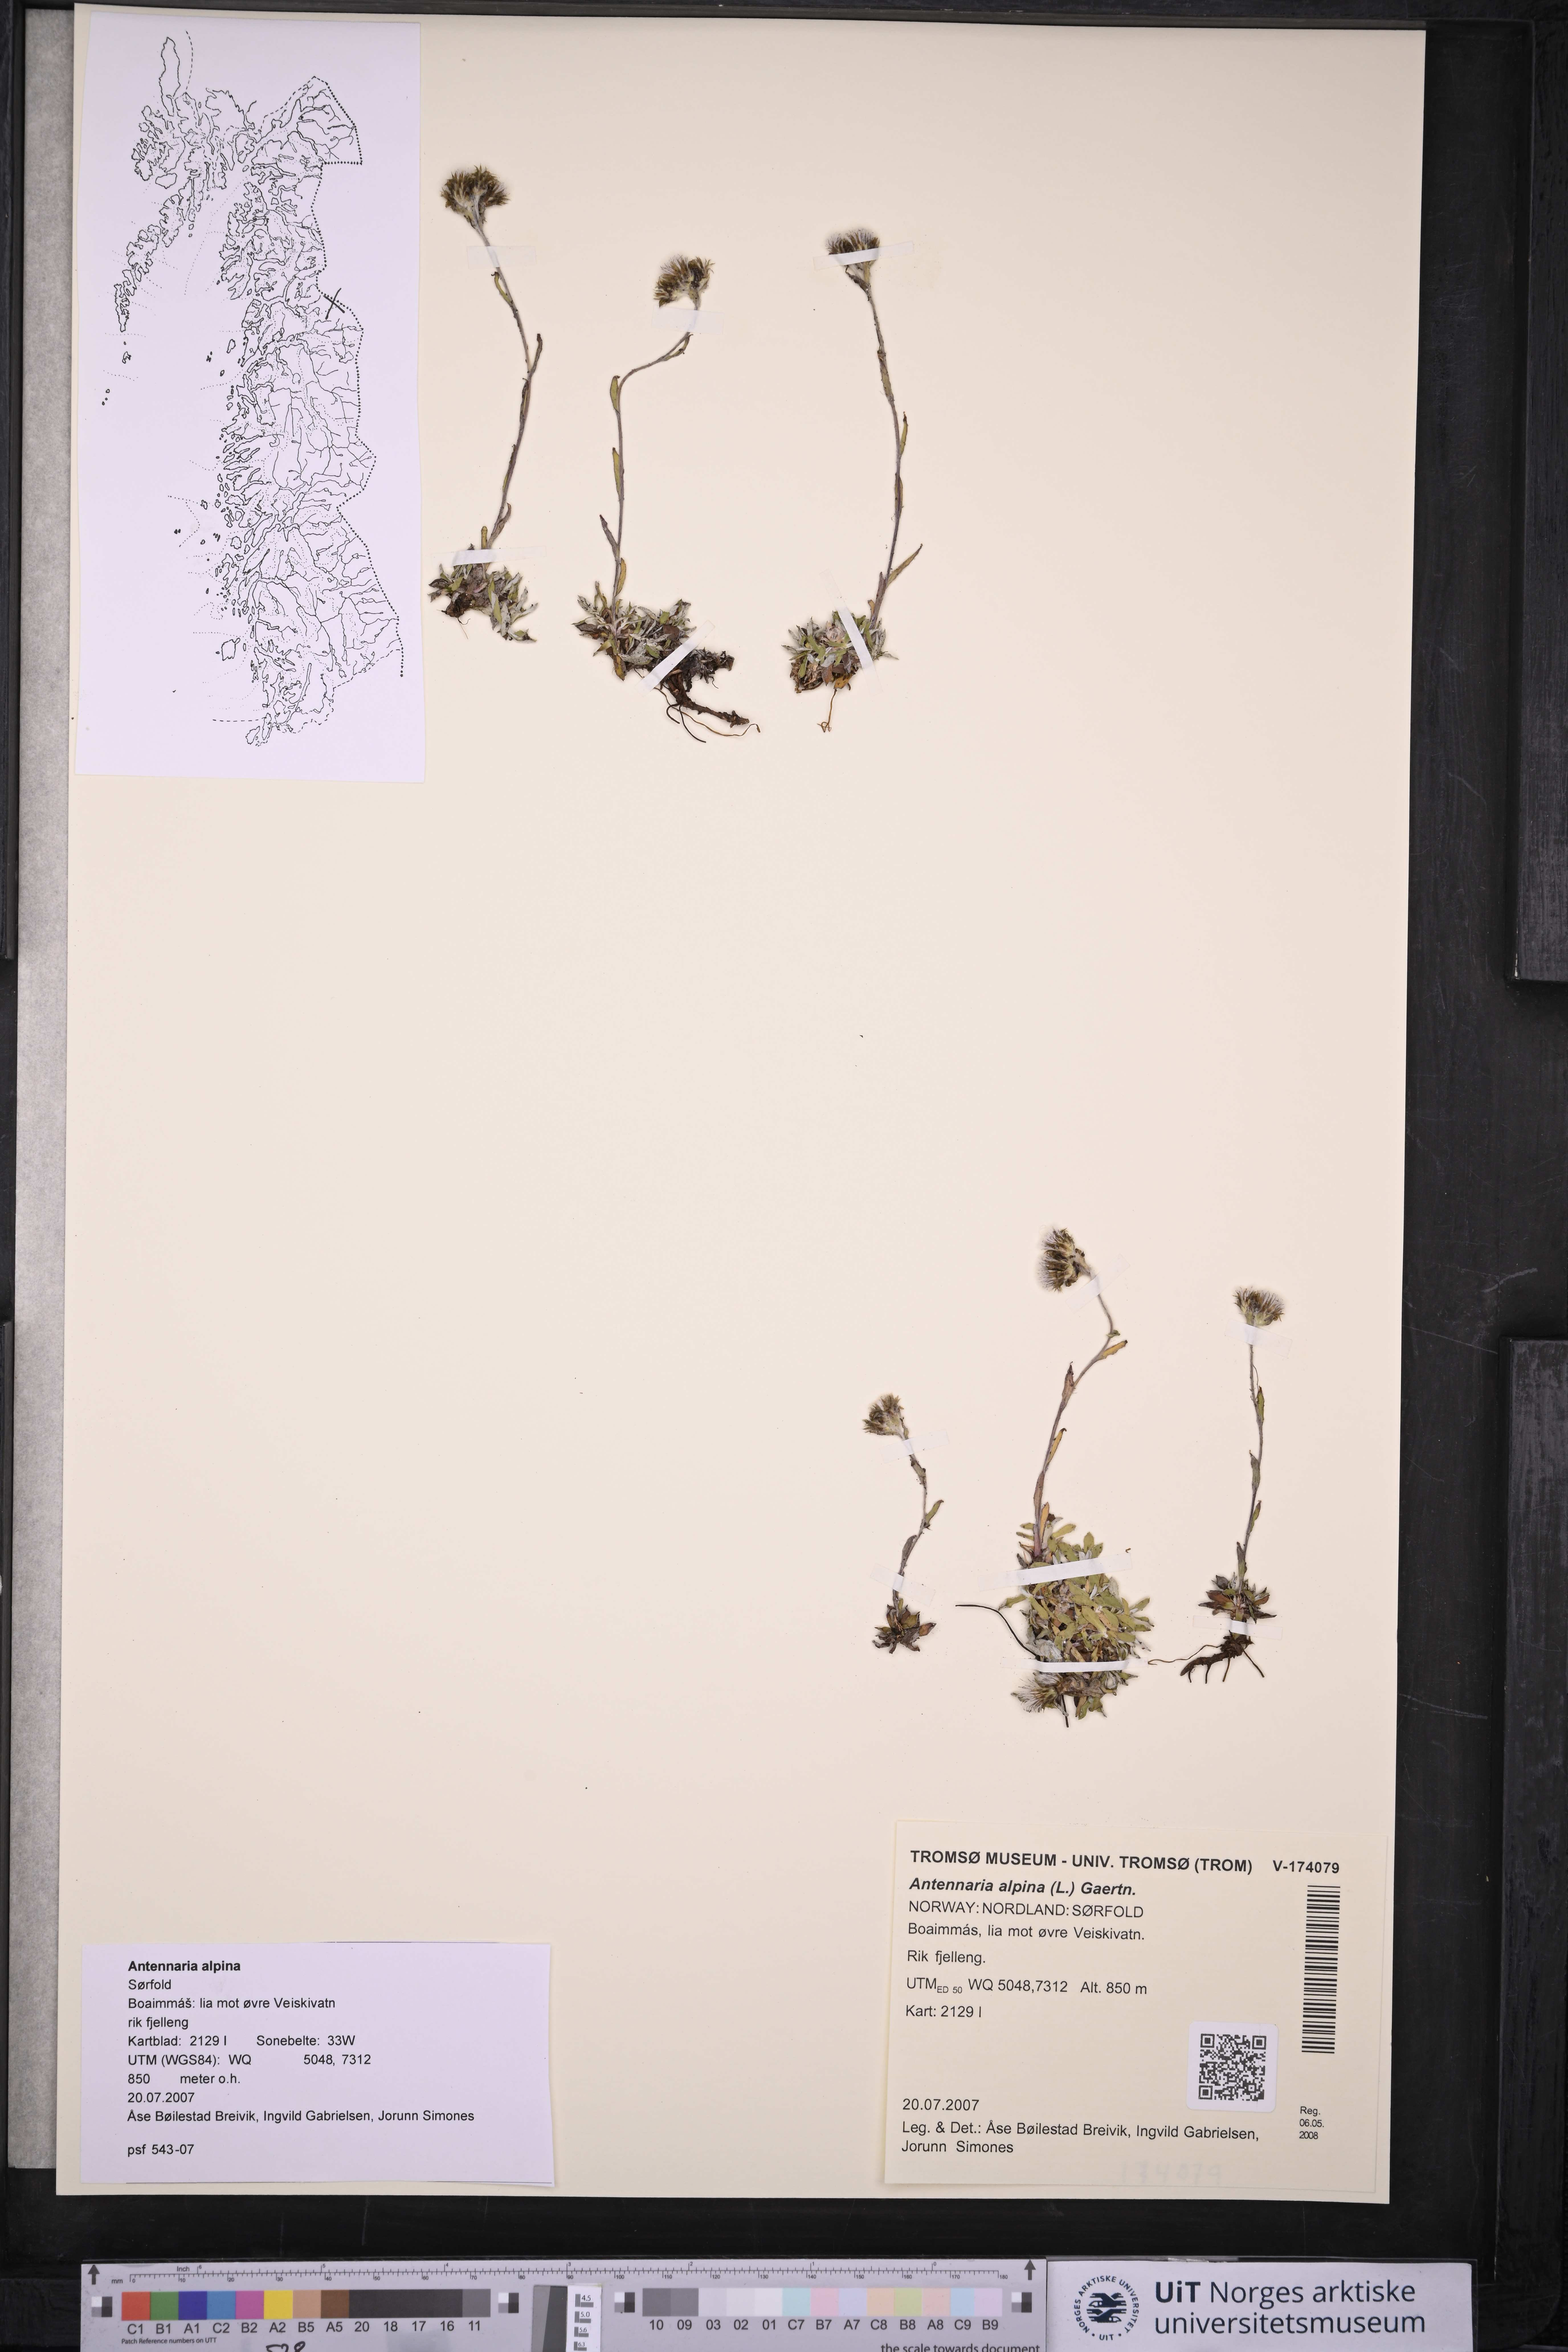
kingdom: Plantae
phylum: Tracheophyta
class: Magnoliopsida
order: Asterales
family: Asteraceae
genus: Antennaria
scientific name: Antennaria alpina
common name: Alpine pussytoes
